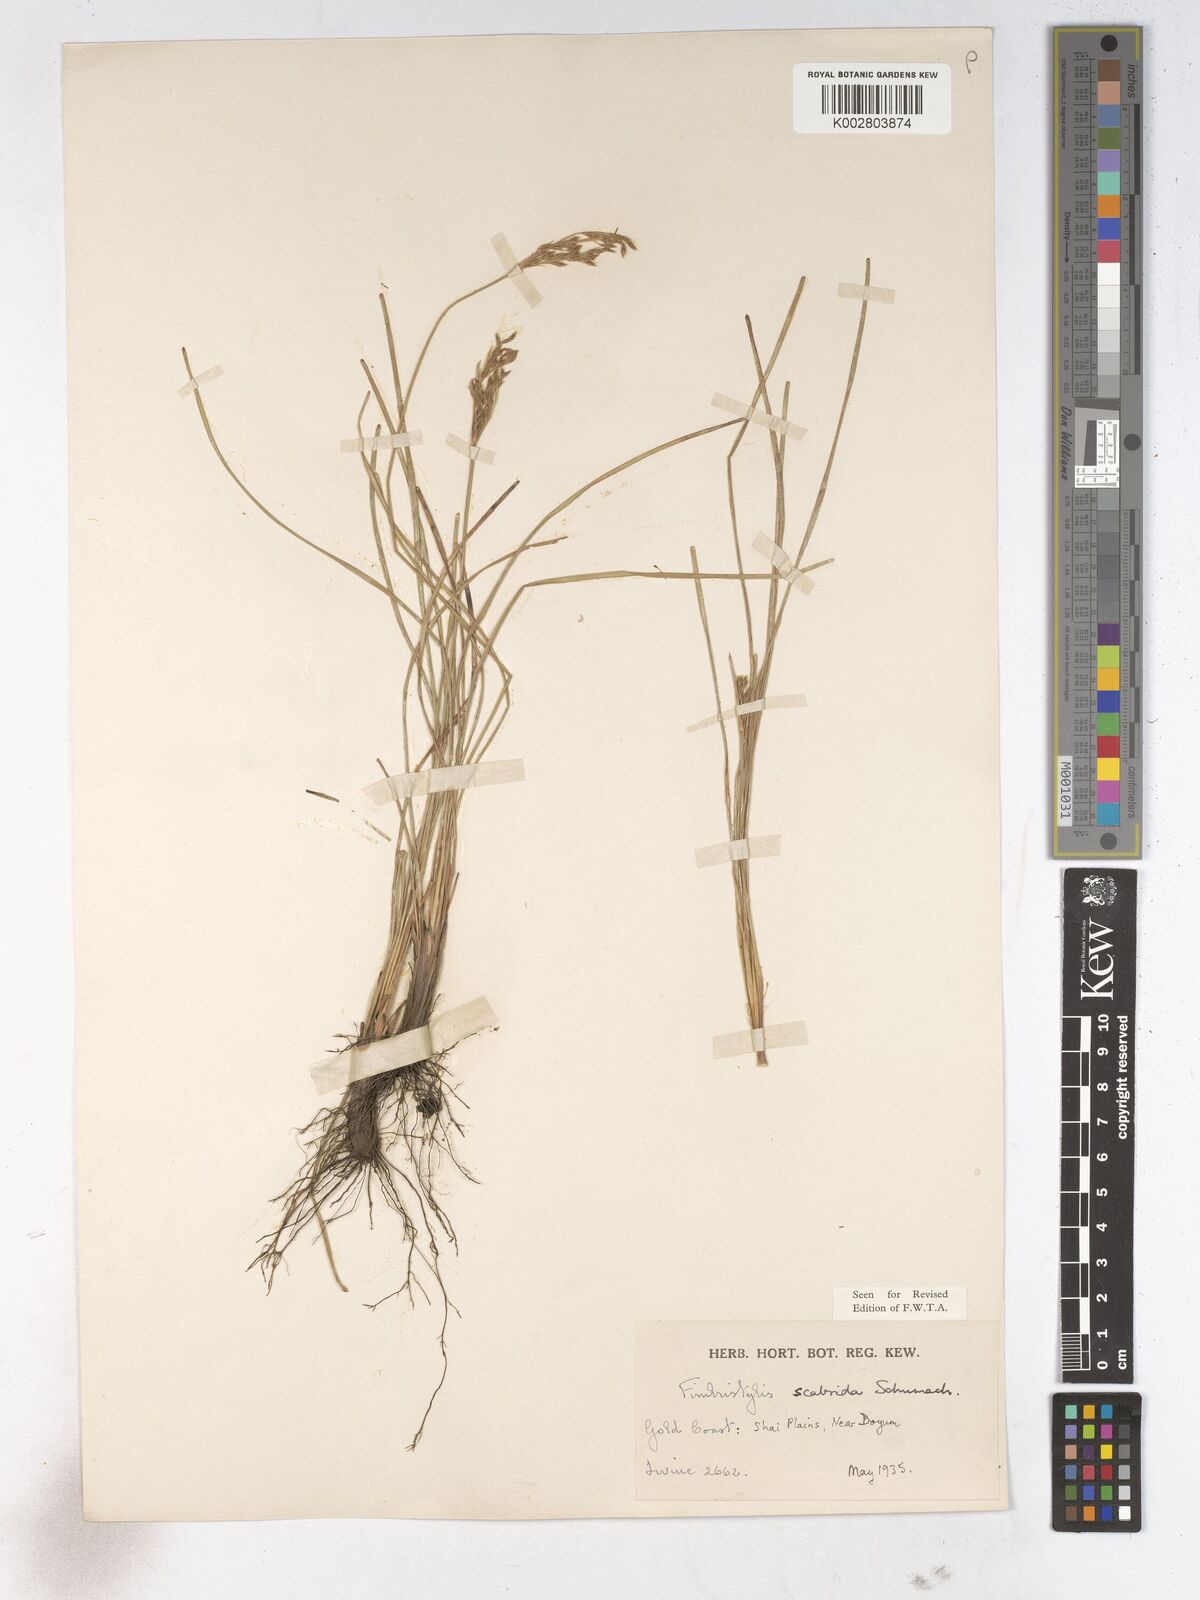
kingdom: Plantae
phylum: Tracheophyta
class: Liliopsida
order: Poales
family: Cyperaceae
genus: Fimbristylis
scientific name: Fimbristylis scabrida
